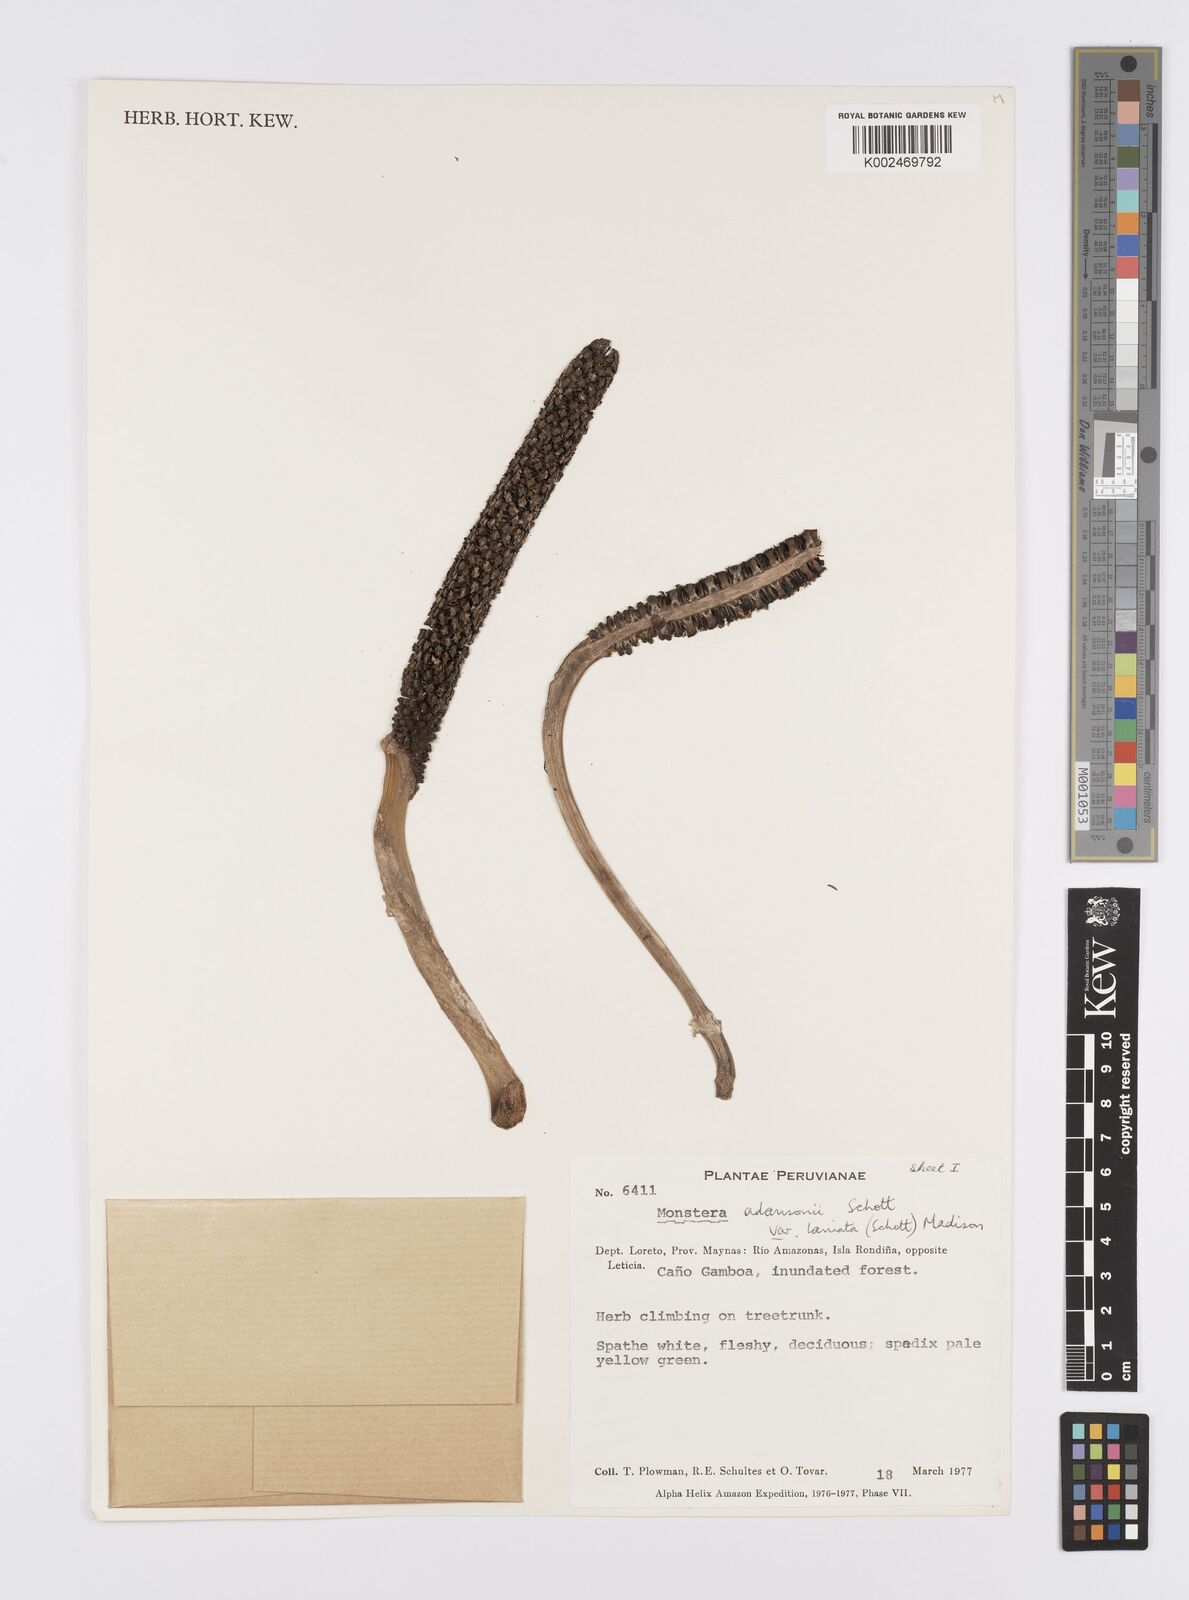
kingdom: Plantae
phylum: Tracheophyta
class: Liliopsida
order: Alismatales
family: Araceae
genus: Monstera
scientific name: Monstera adansonii
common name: Tarovine
